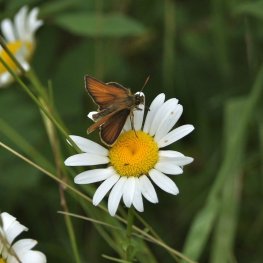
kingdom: Animalia
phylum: Arthropoda
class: Insecta
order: Lepidoptera
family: Hesperiidae
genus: Thymelicus
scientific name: Thymelicus lineola
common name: European Skipper
